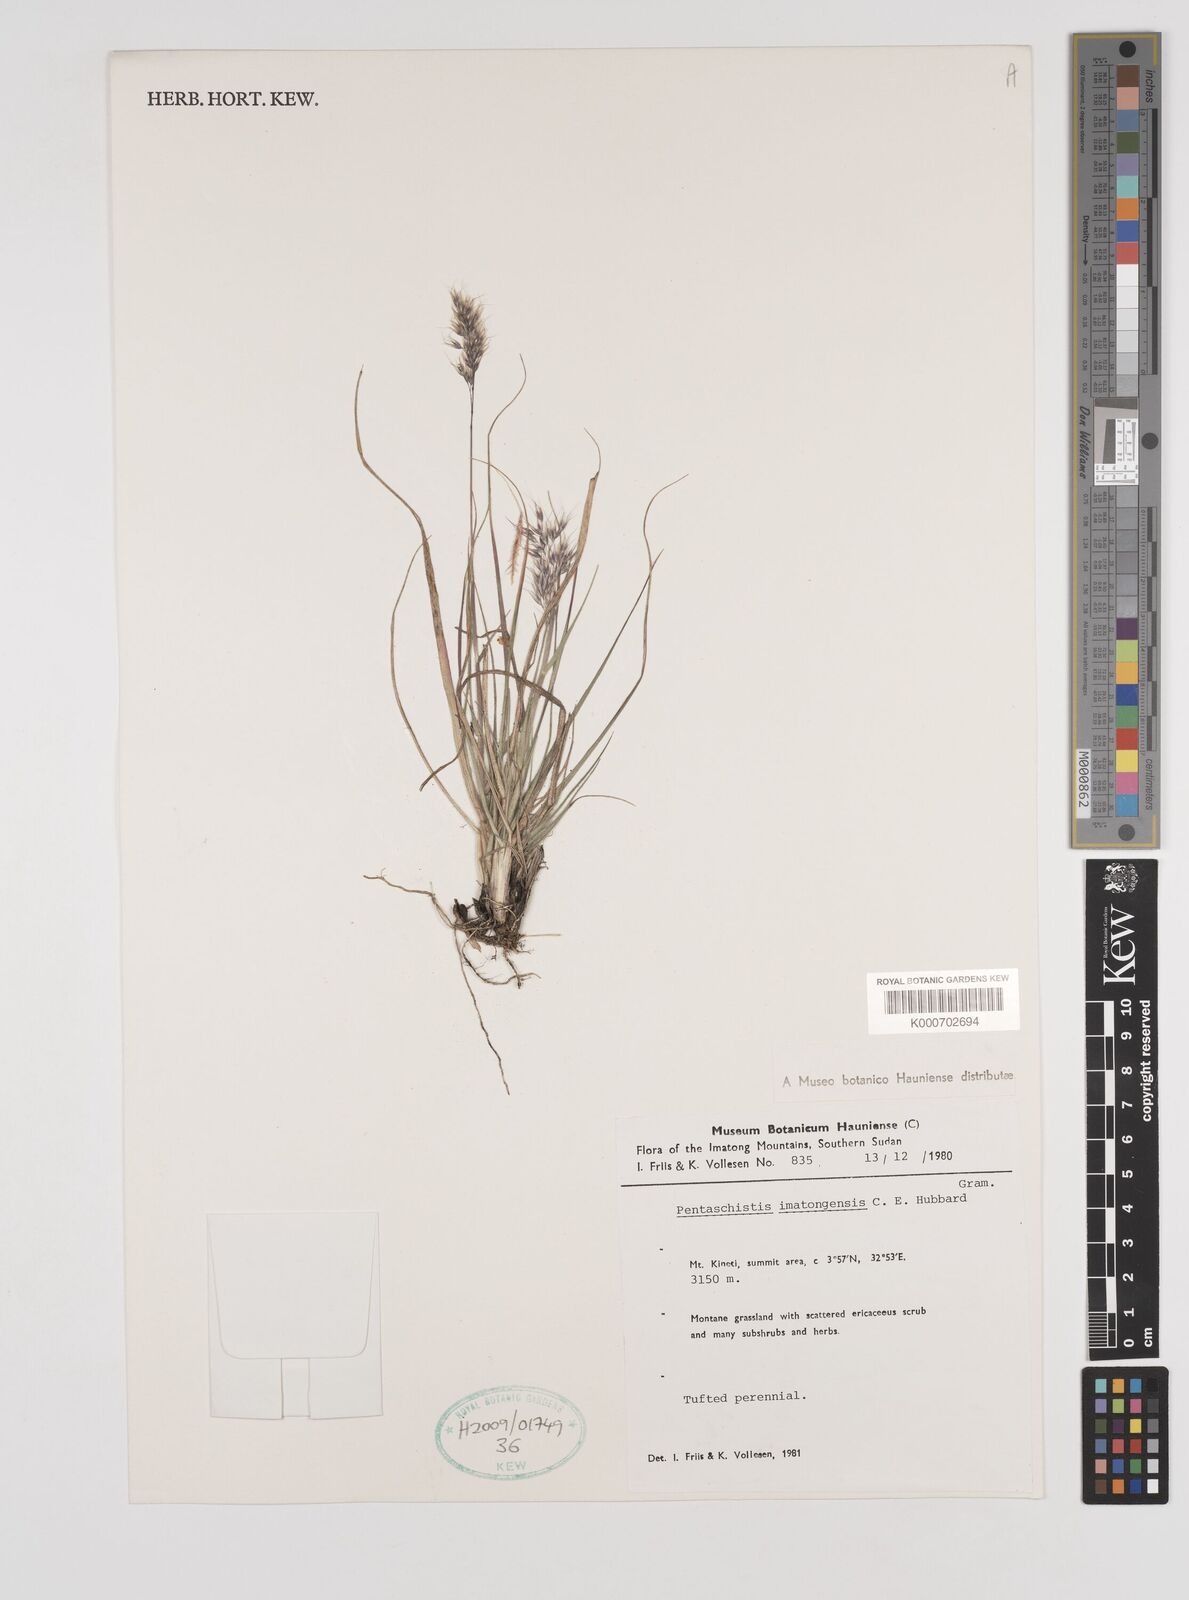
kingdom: Plantae
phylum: Tracheophyta
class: Liliopsida
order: Poales
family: Poaceae
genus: Pentameris
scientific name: Pentameris pictigluma
